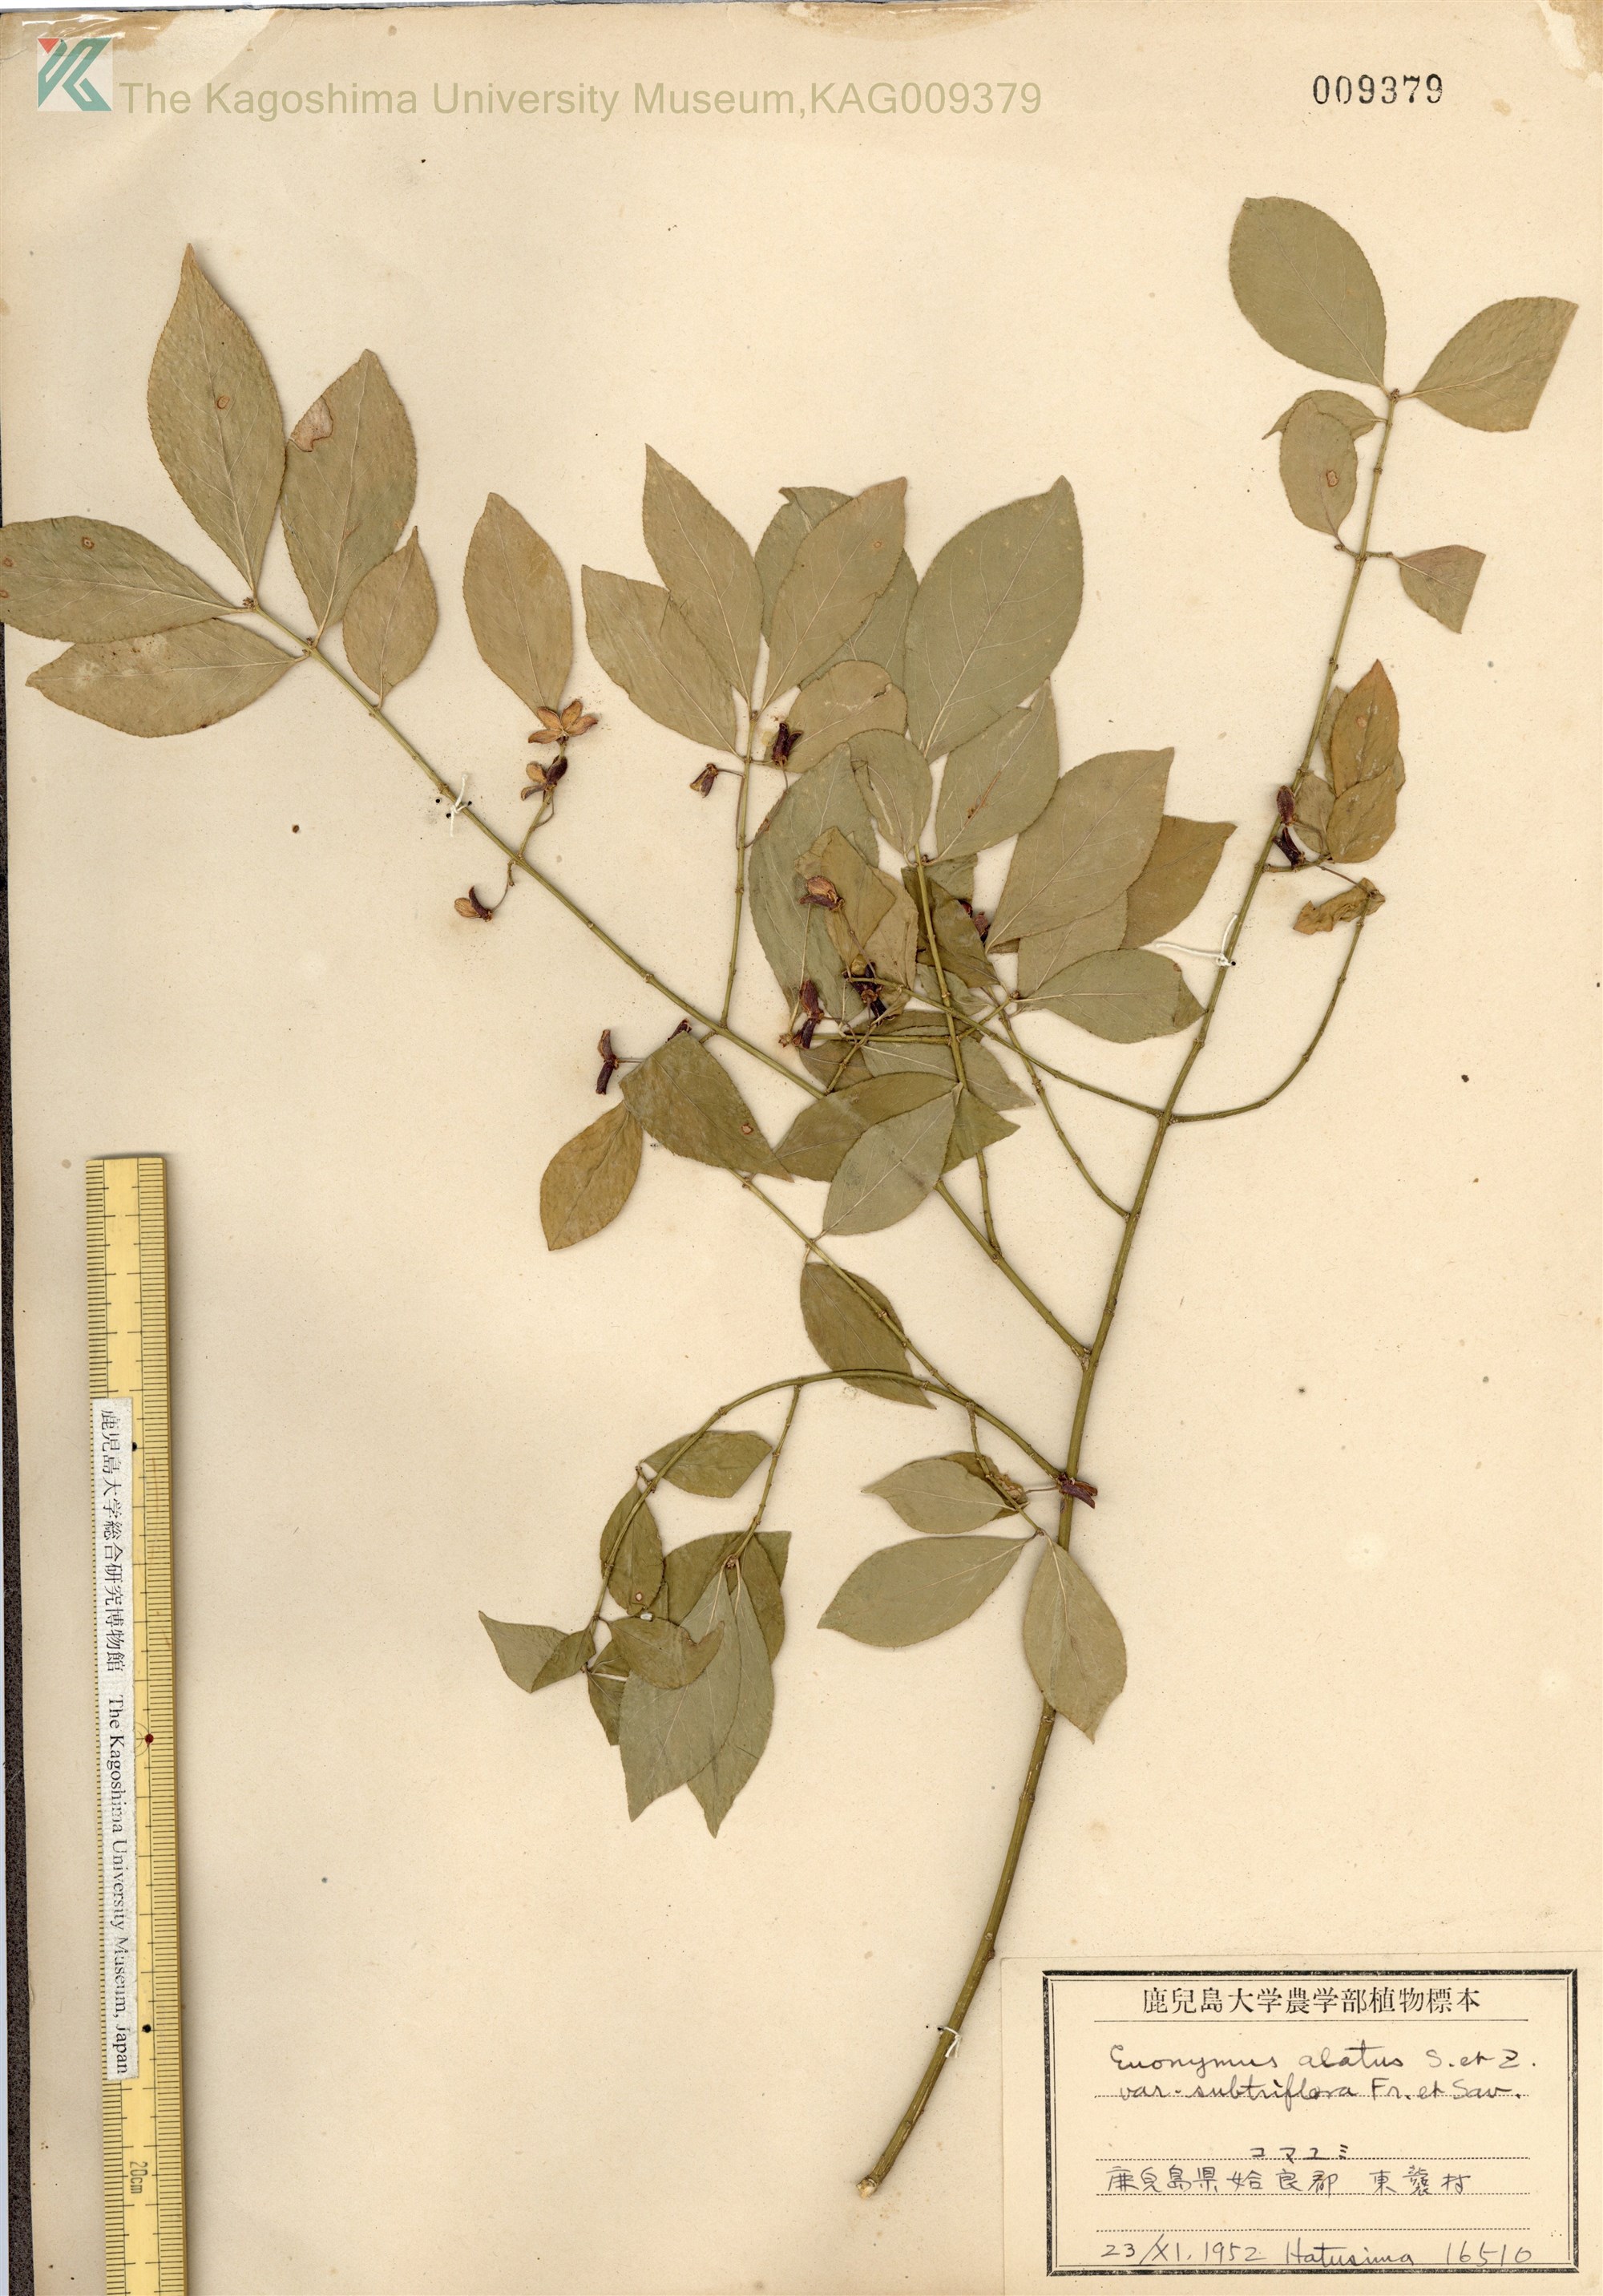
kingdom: Plantae
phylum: Tracheophyta
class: Magnoliopsida
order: Celastrales
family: Celastraceae
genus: Euonymus
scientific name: Euonymus alatus
